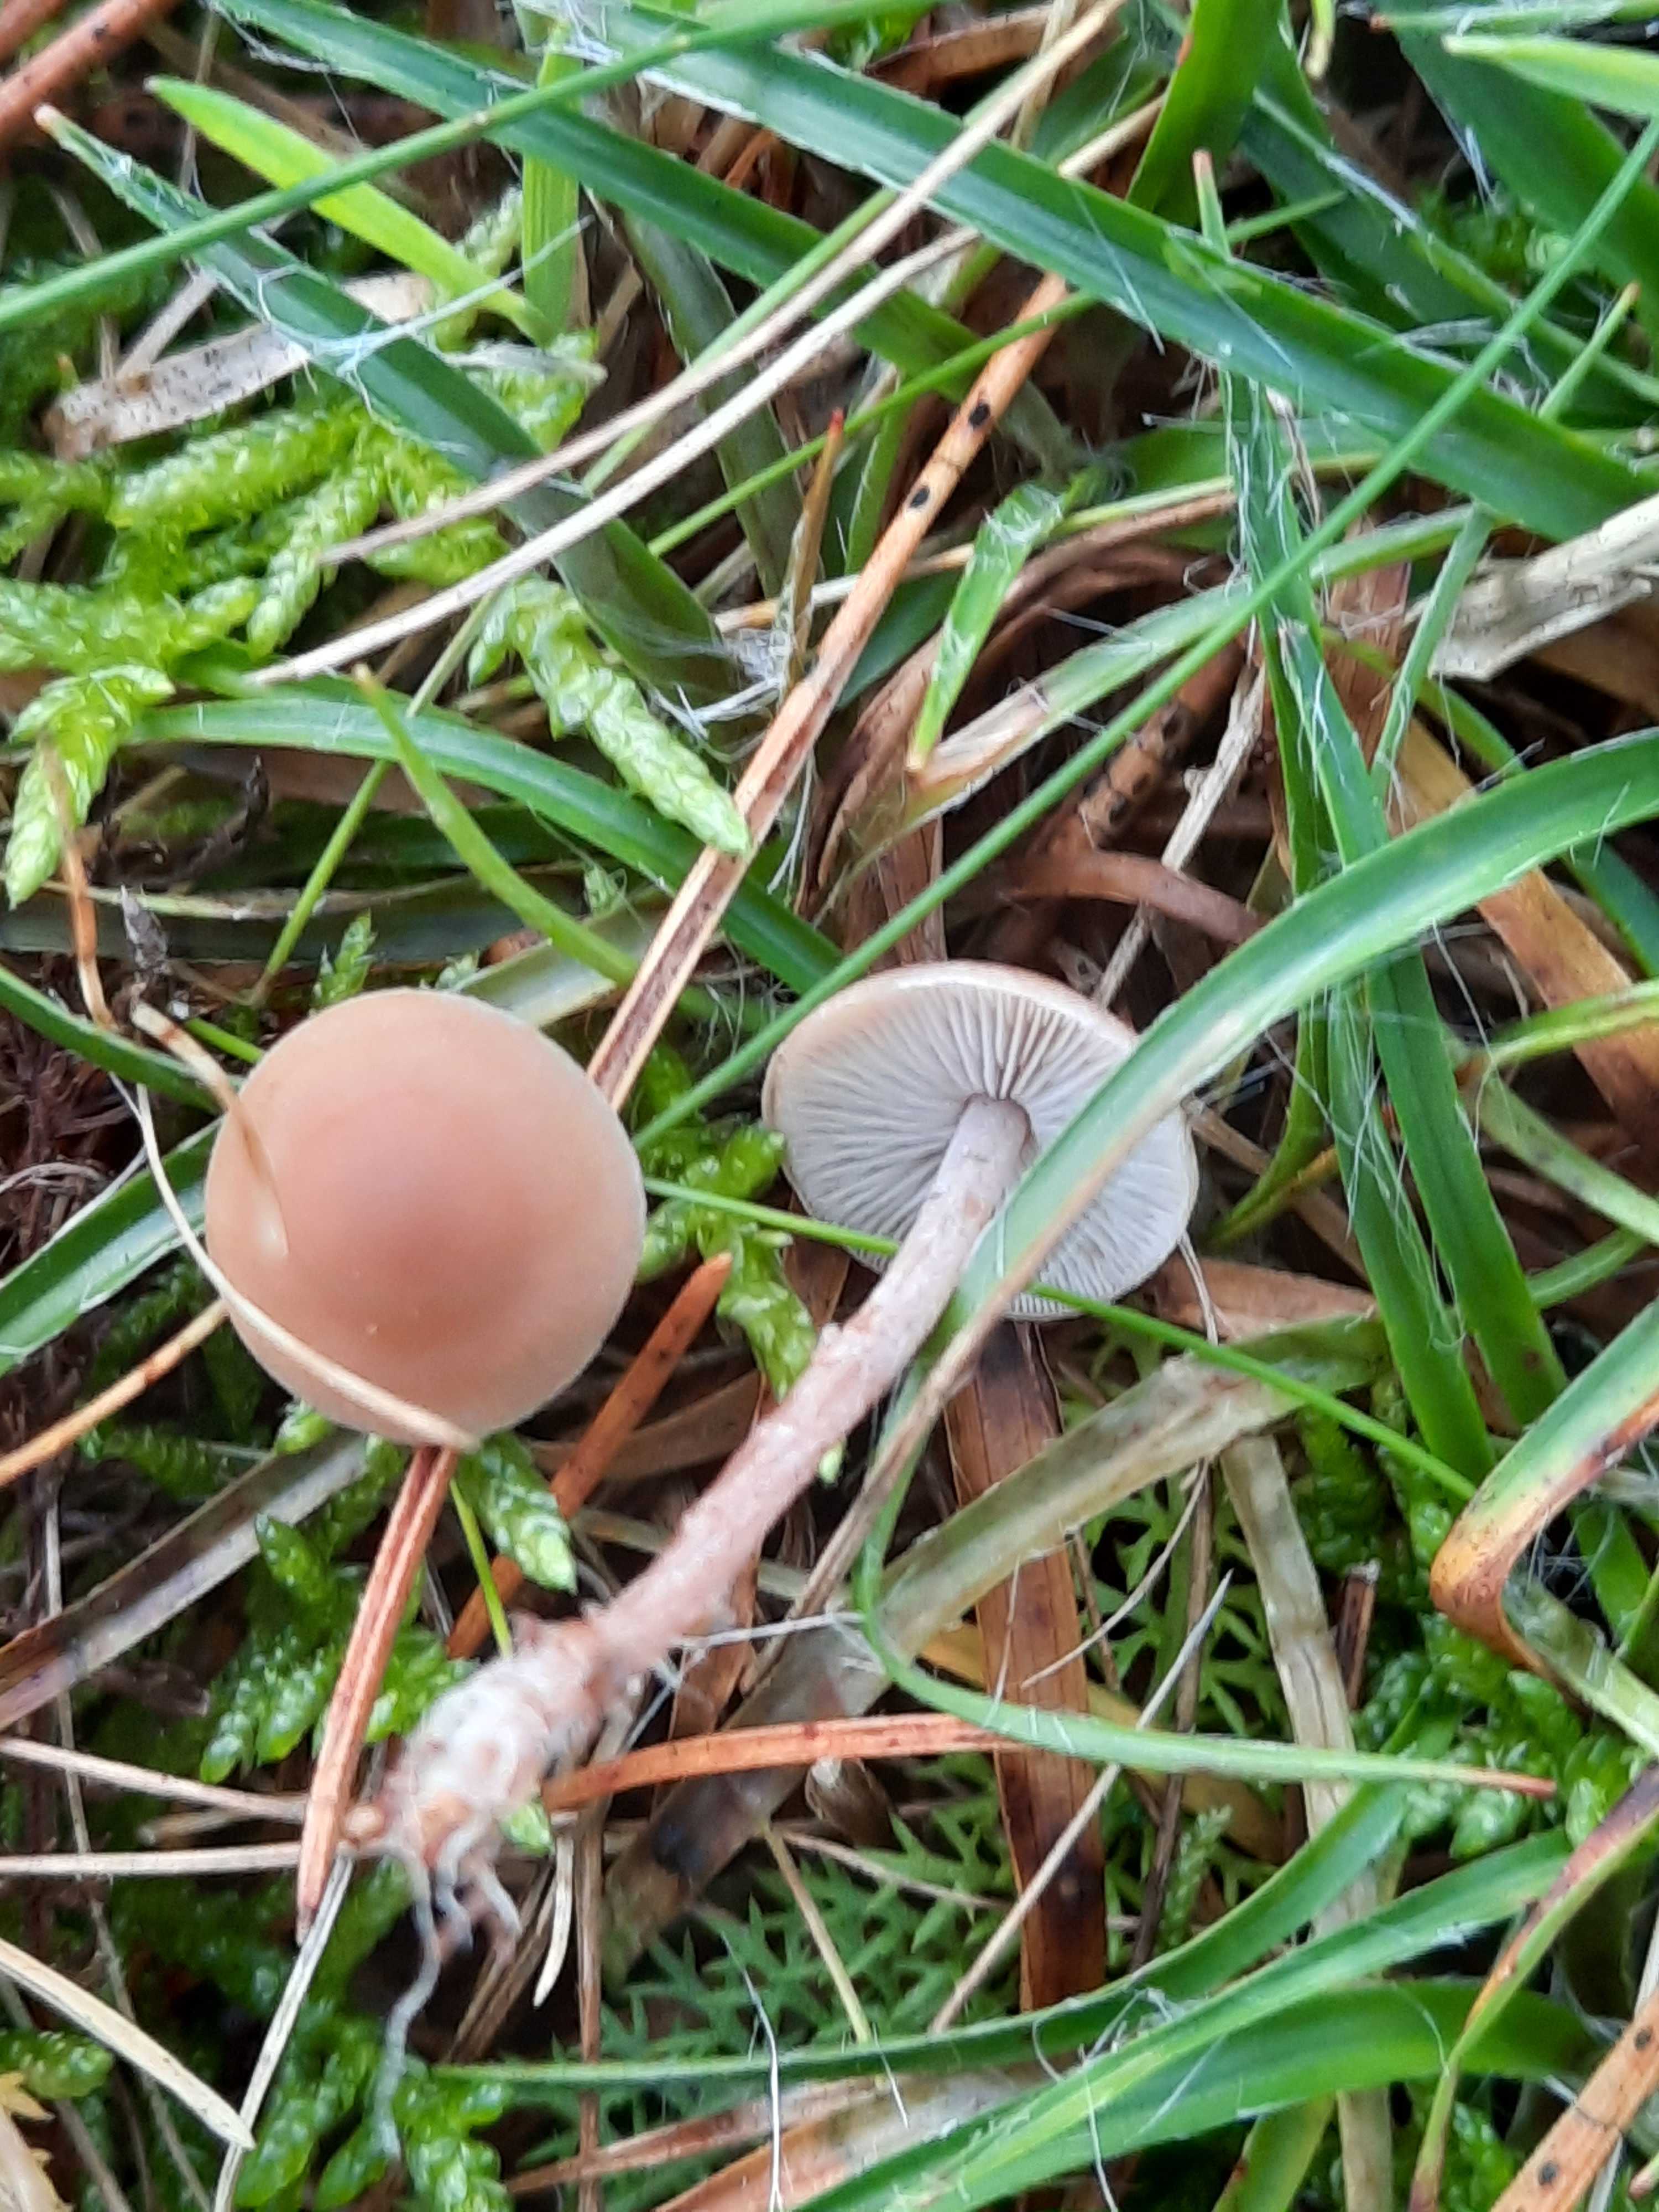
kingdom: Fungi
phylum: Basidiomycota
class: Agaricomycetes
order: Agaricales
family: Marasmiaceae
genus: Baeospora
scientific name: Baeospora myosura
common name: koglebruskhat
